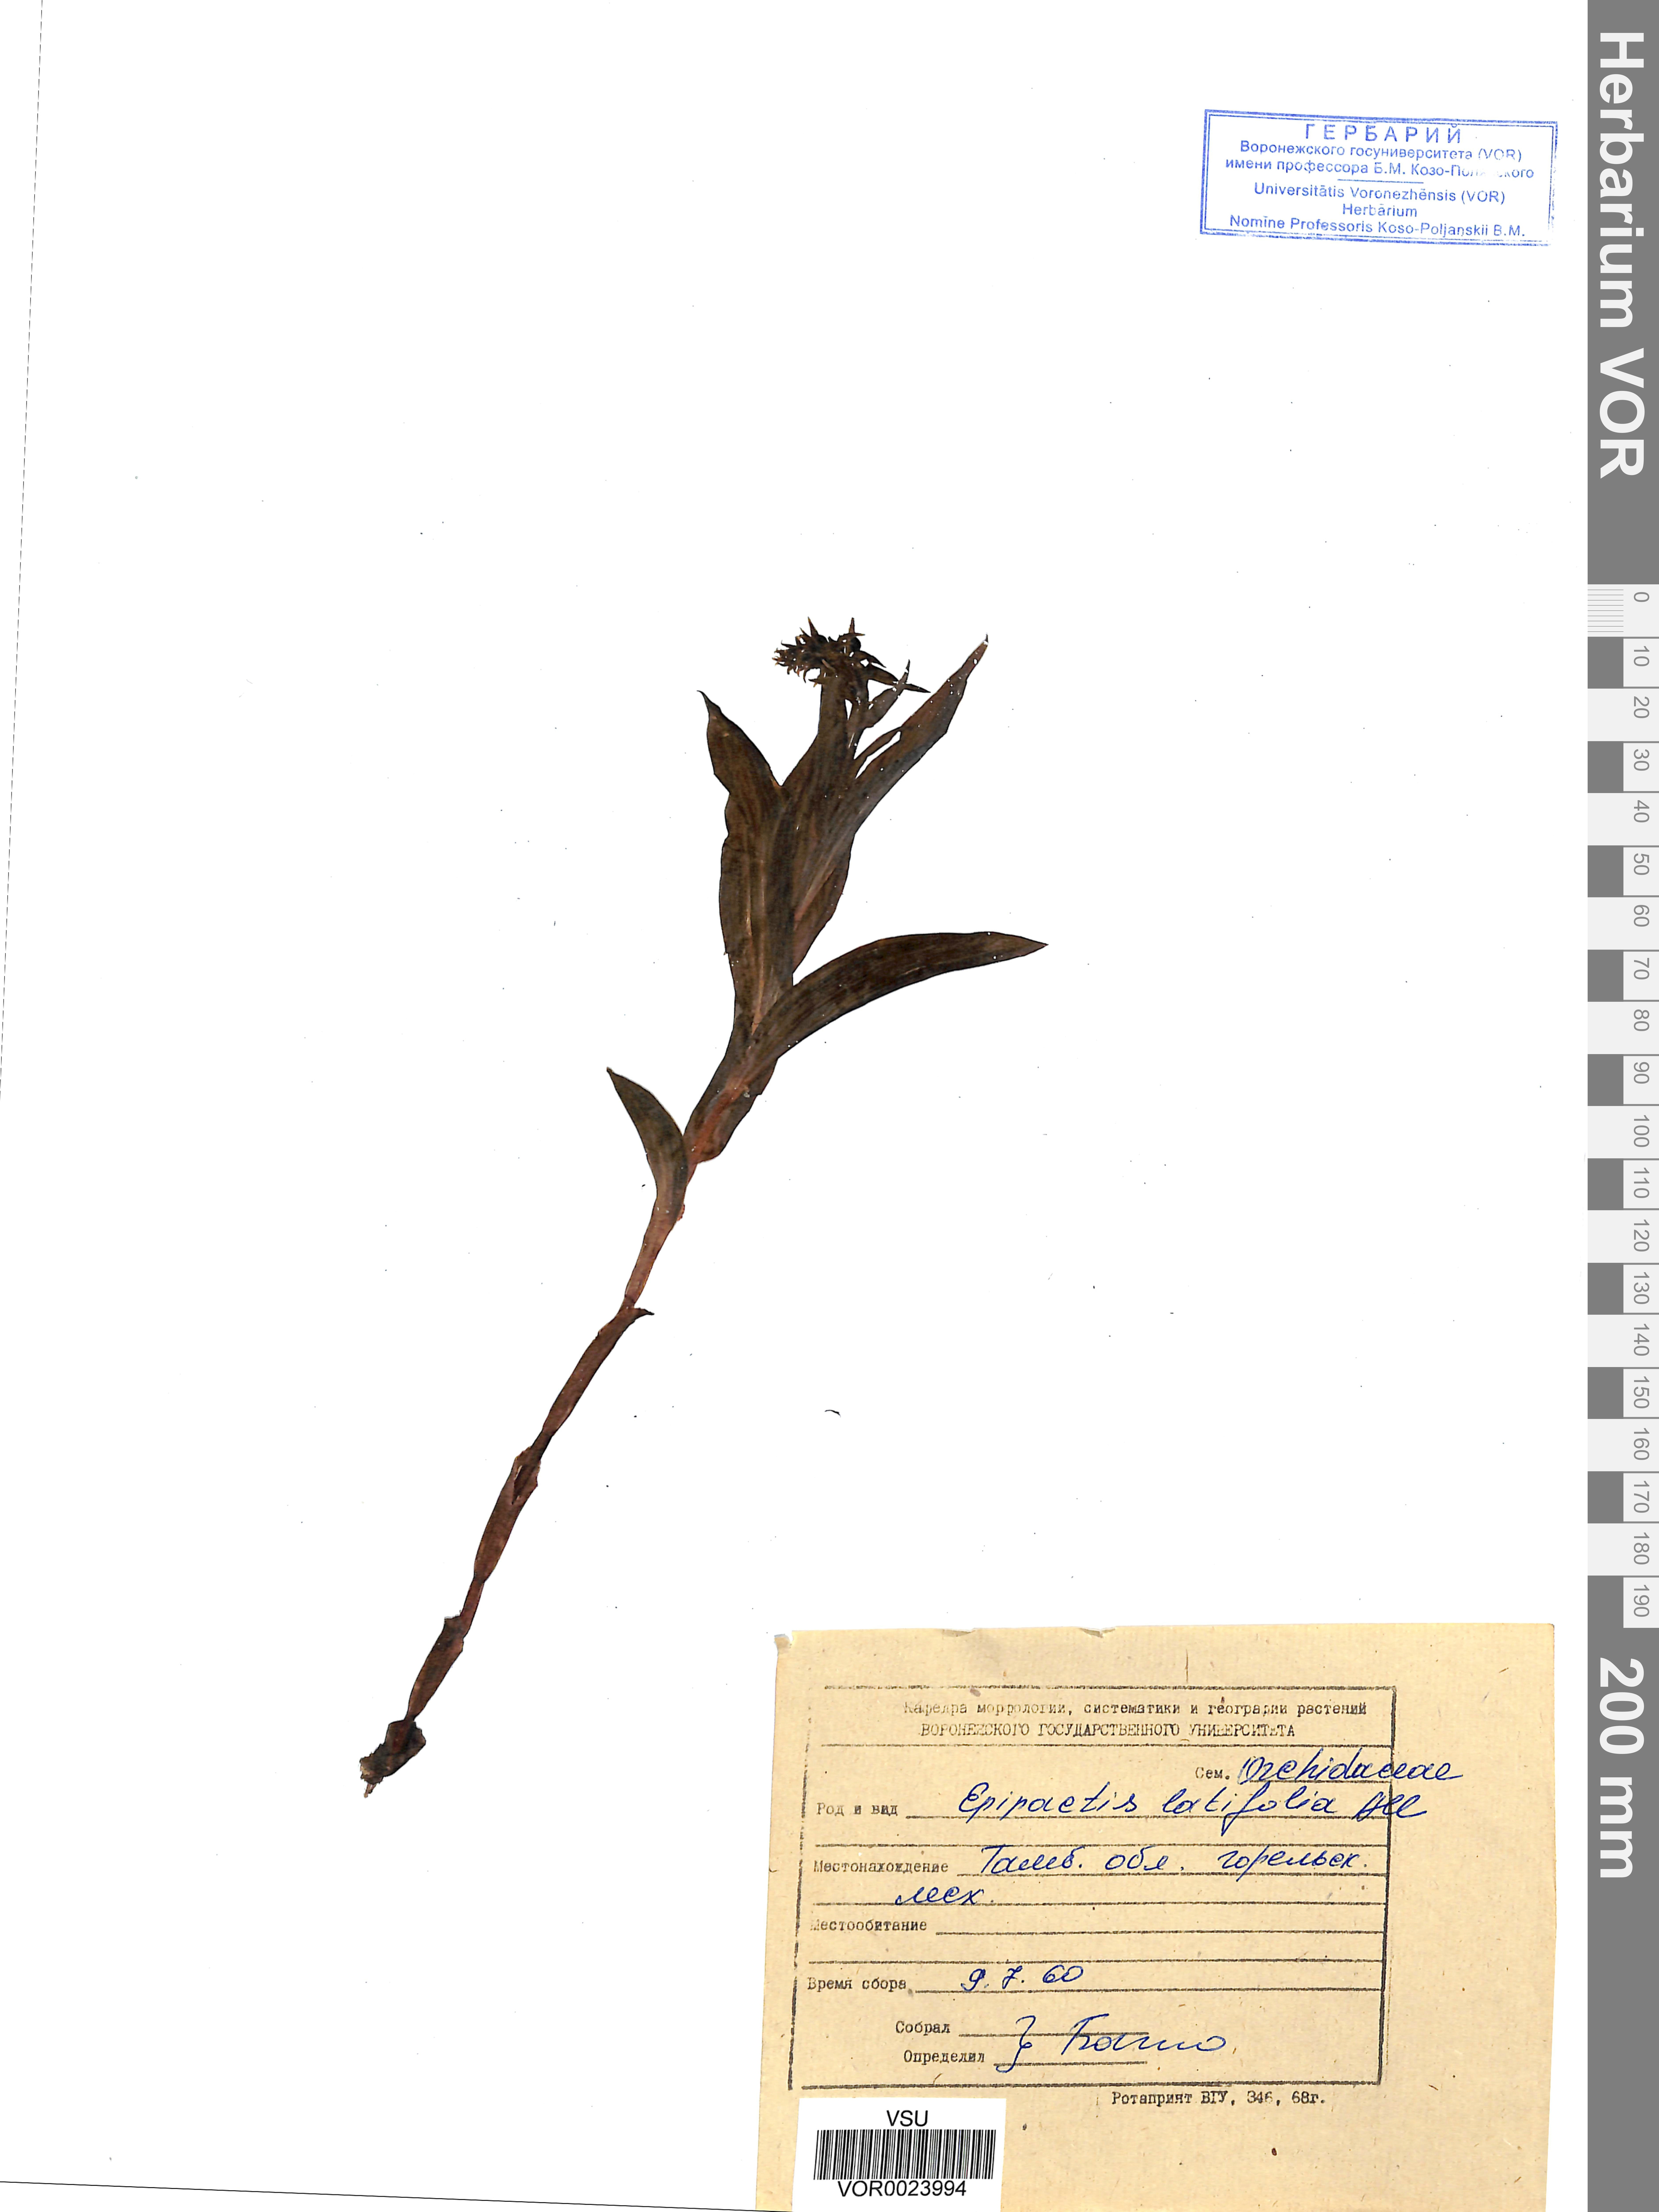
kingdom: Plantae
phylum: Tracheophyta
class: Liliopsida
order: Asparagales
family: Orchidaceae
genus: Epipactis
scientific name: Epipactis helleborine
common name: Broad-leaved helleborine
